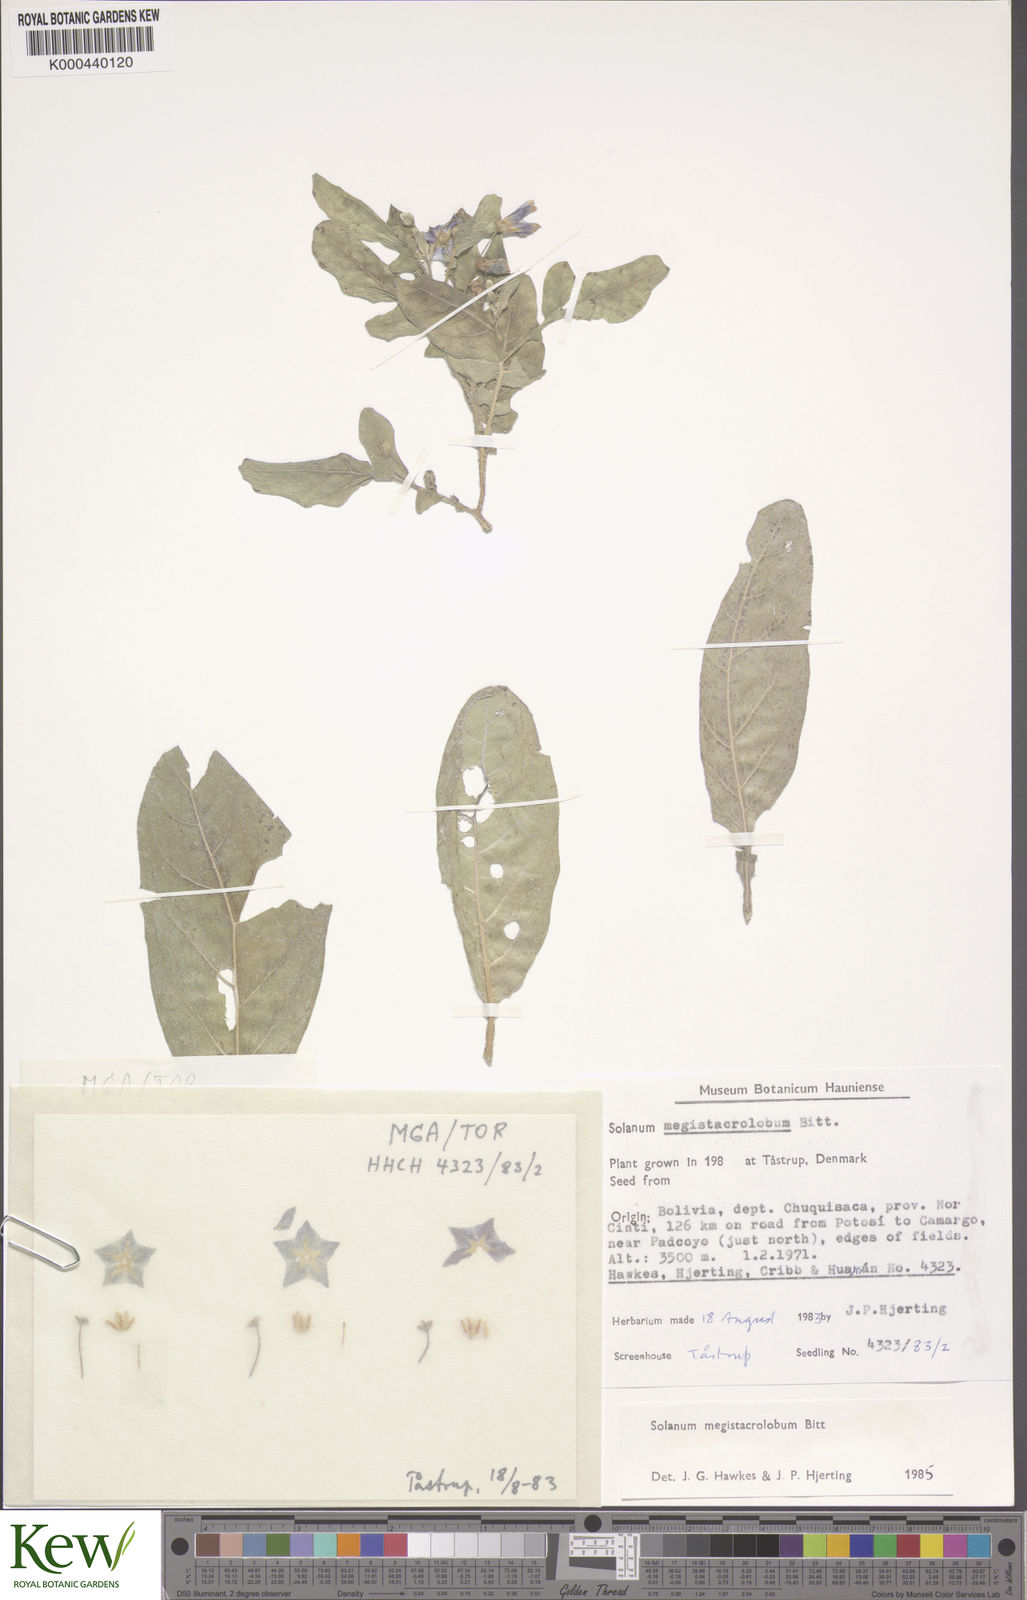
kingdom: Plantae
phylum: Tracheophyta
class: Magnoliopsida
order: Solanales
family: Solanaceae
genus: Solanum
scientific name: Solanum boliviense
